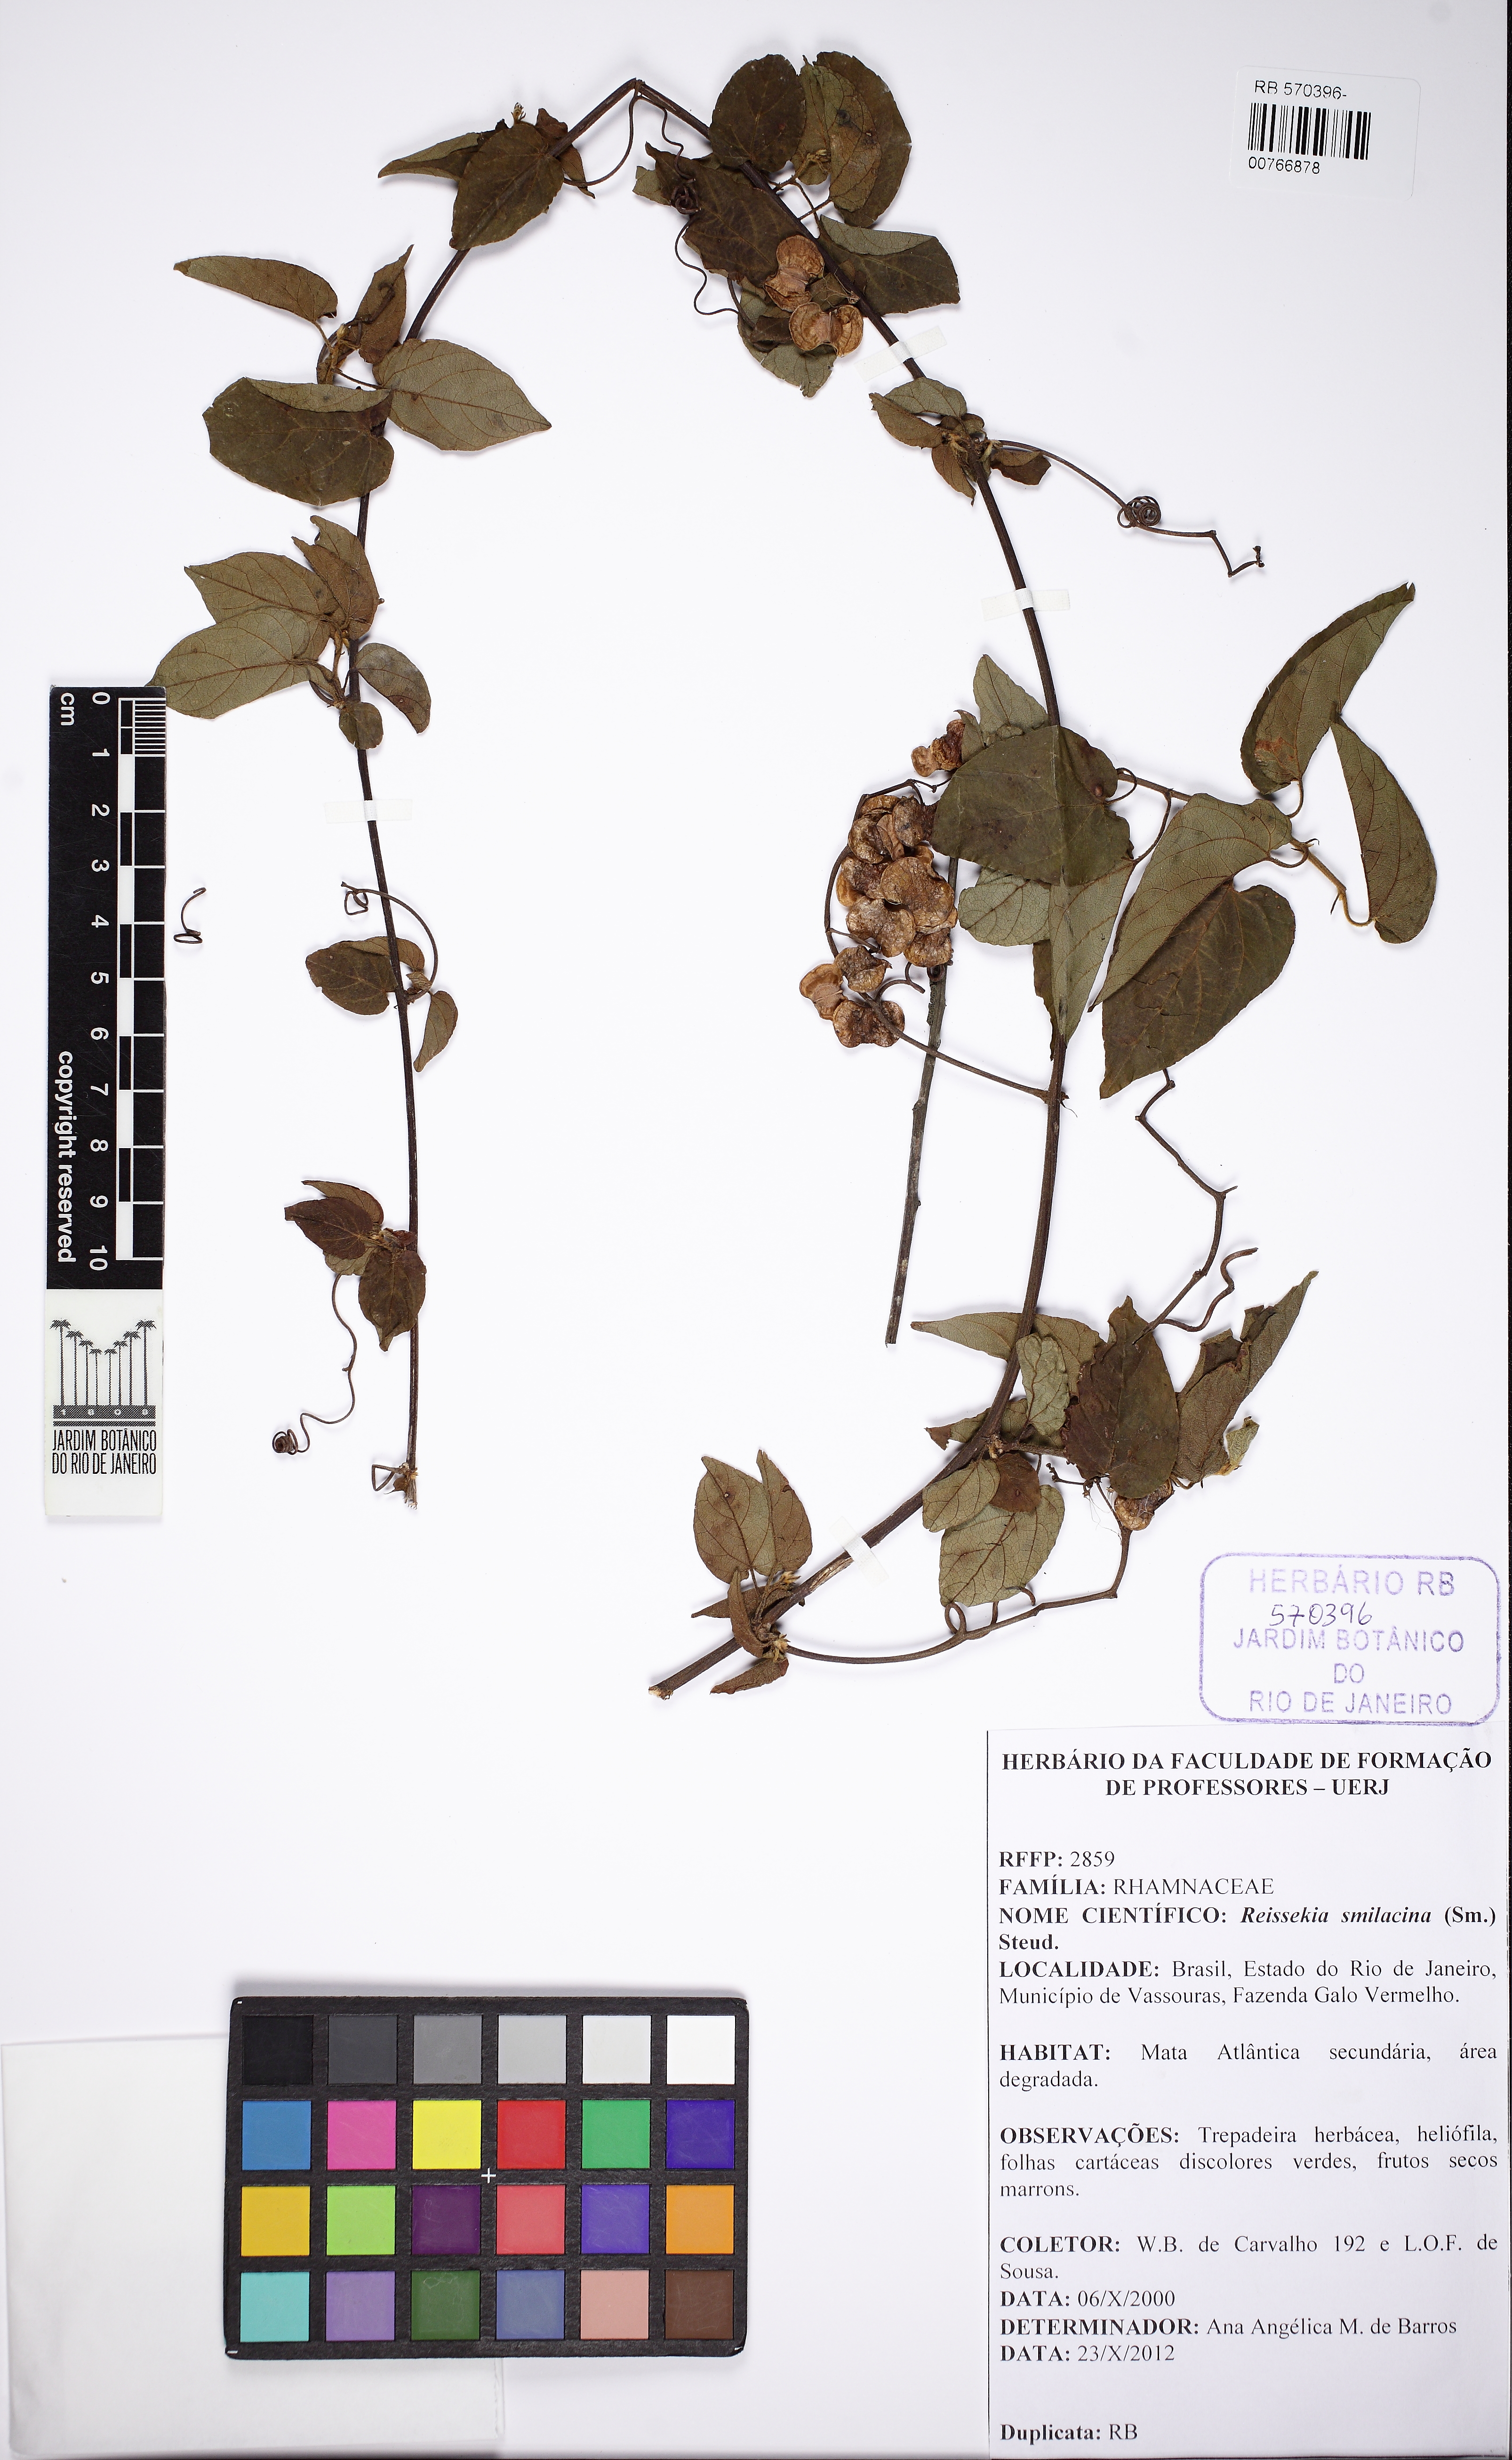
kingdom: Plantae
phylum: Tracheophyta
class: Magnoliopsida
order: Rosales
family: Rhamnaceae
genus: Reissekia
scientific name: Reissekia smilacina
